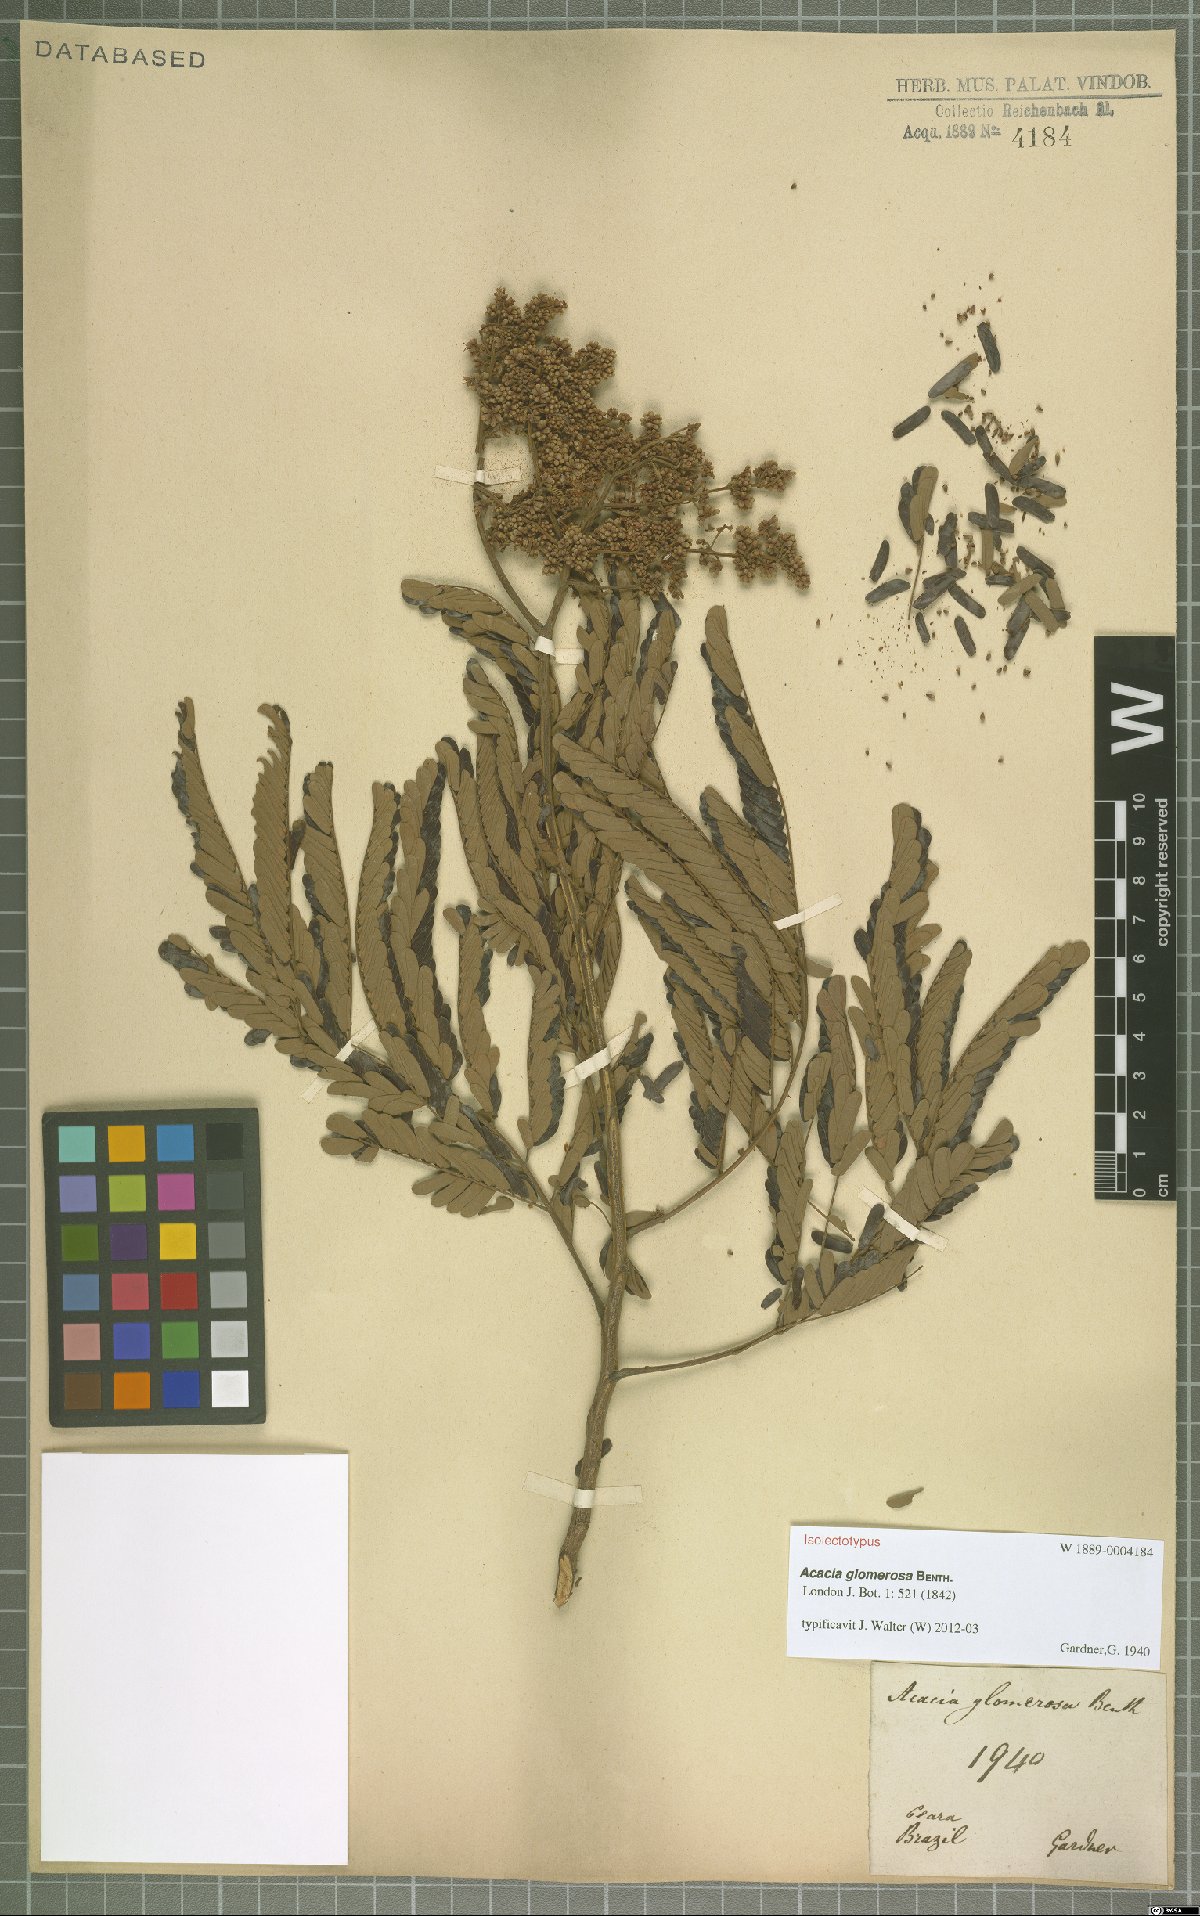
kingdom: Plantae
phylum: Tracheophyta
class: Magnoliopsida
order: Fabales
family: Fabaceae
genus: Senegalia
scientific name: Senegalia polyphylla
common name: White-tamarind
